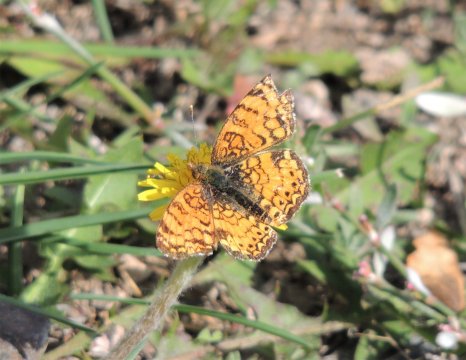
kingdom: Animalia
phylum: Arthropoda
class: Insecta
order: Lepidoptera
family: Nymphalidae
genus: Eresia
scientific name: Eresia aveyrona
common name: Mylitta Crescent
